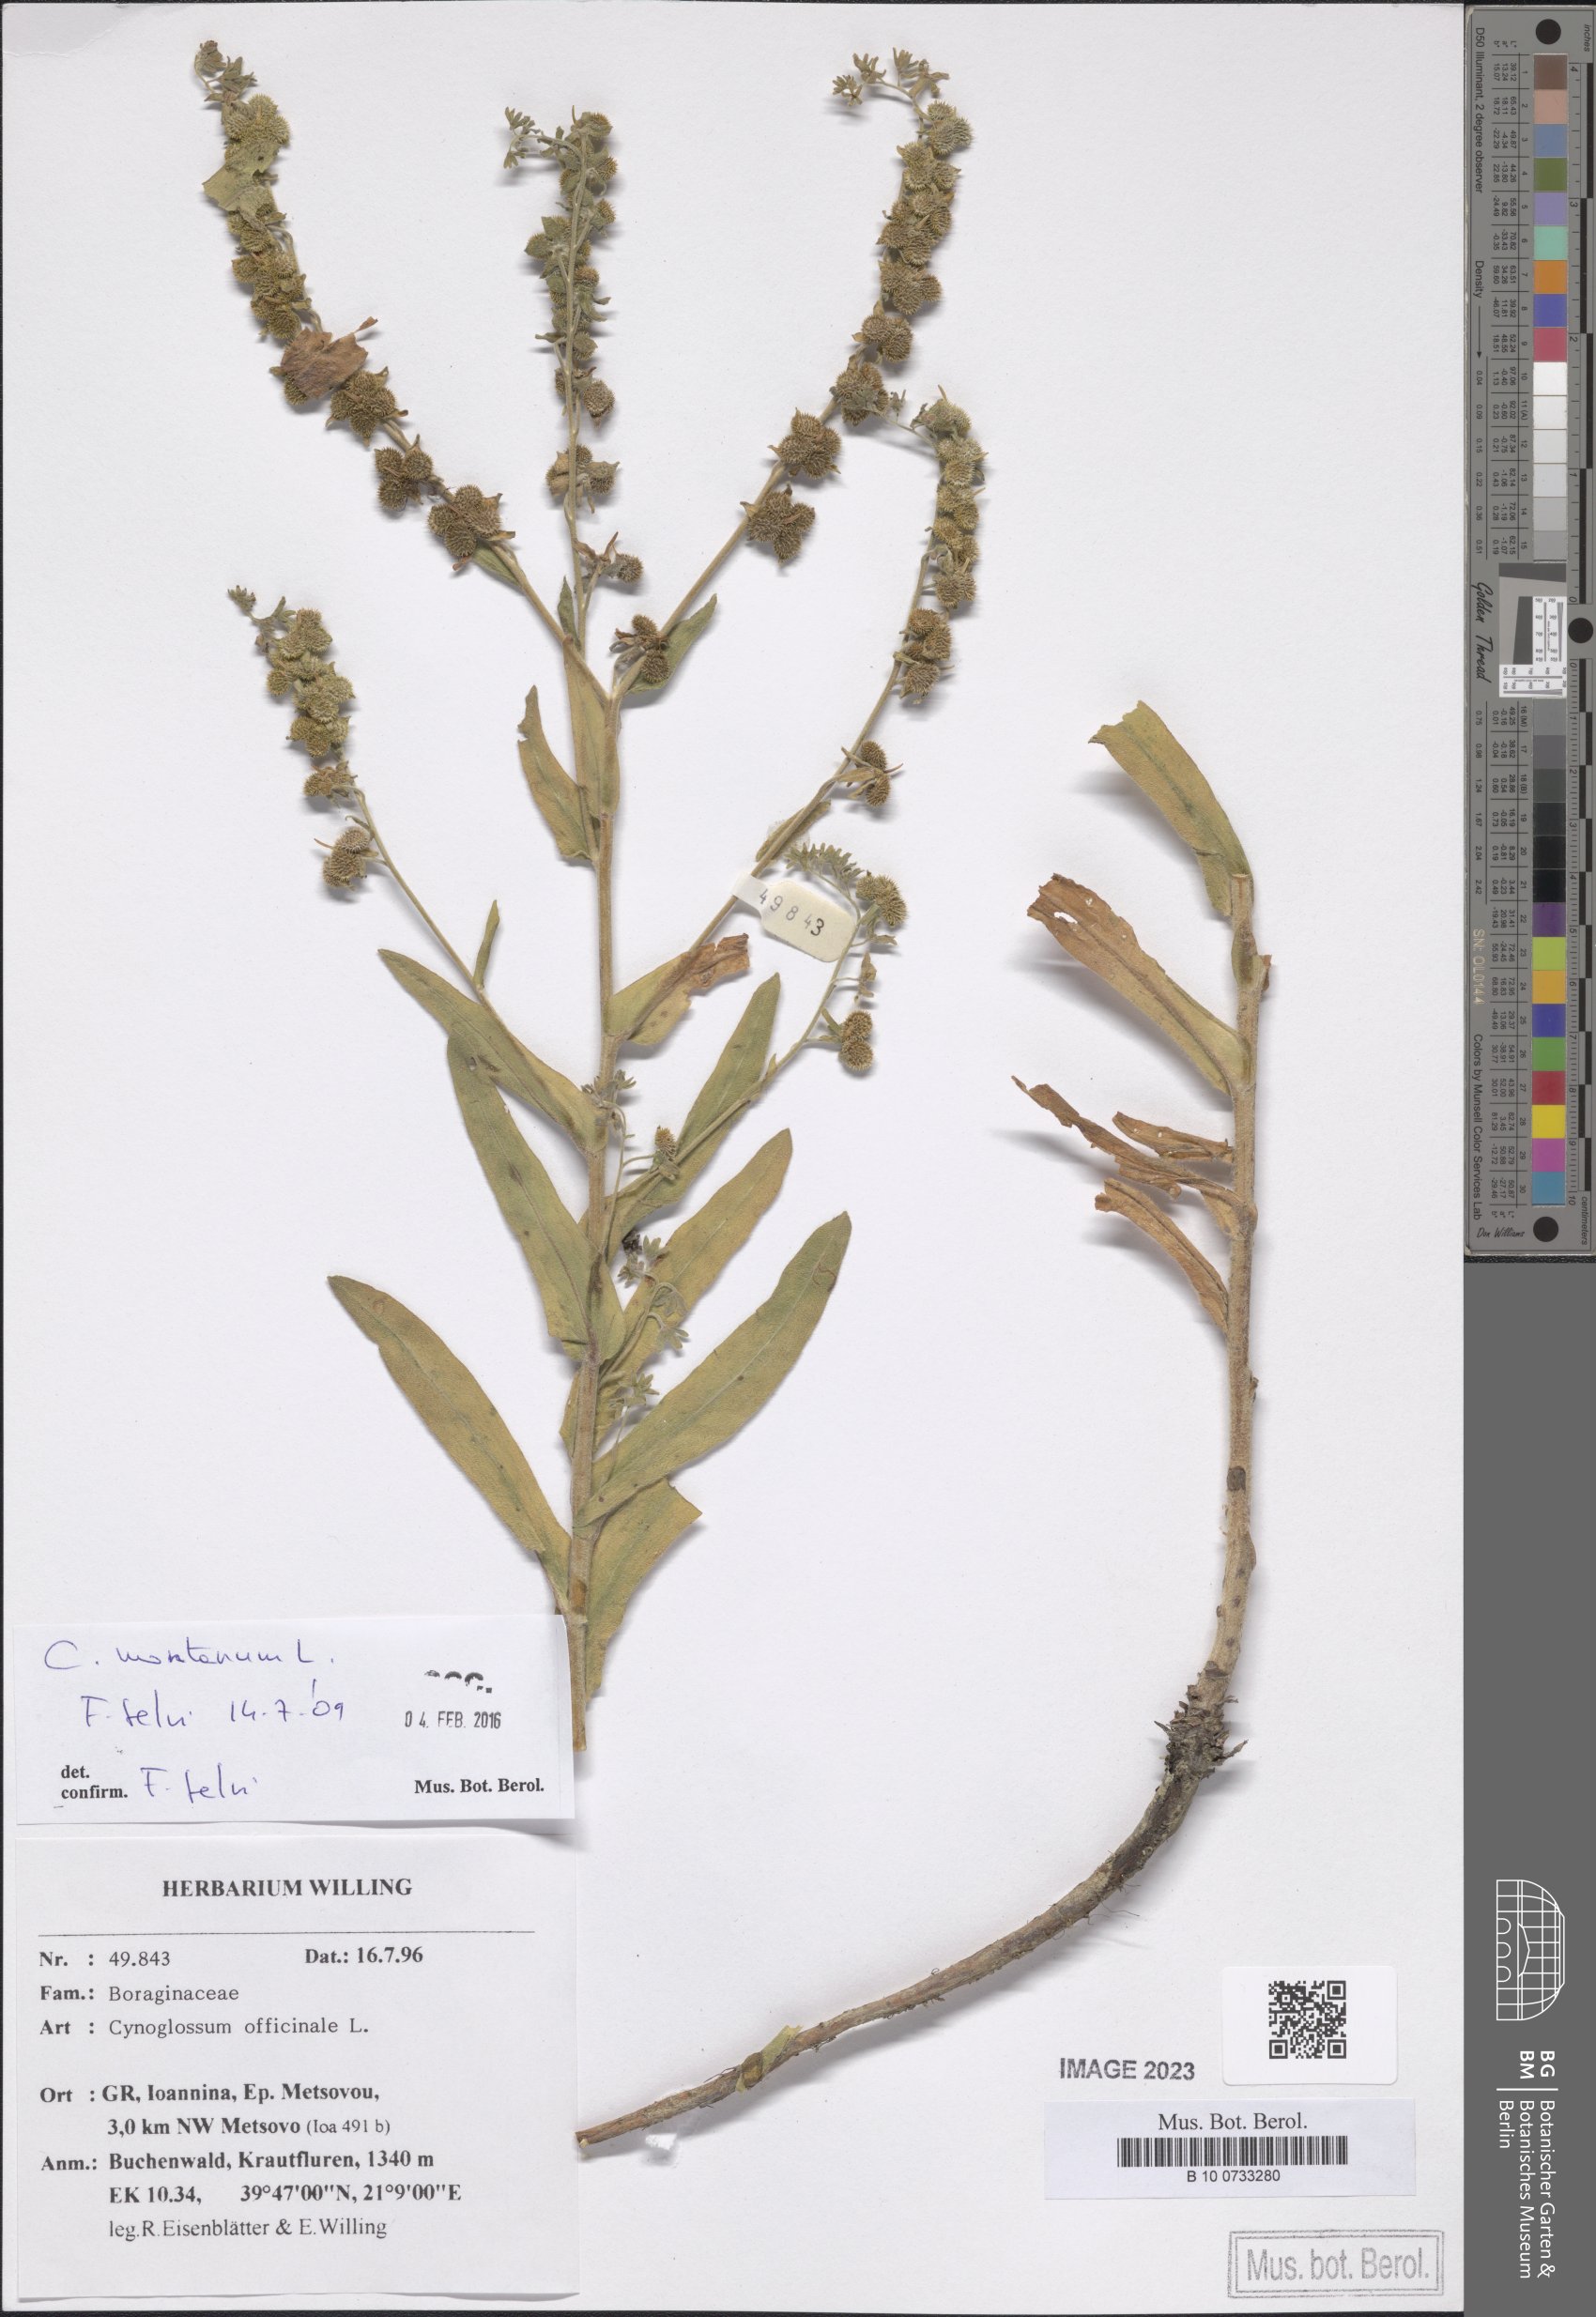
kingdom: Plantae
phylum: Tracheophyta
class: Magnoliopsida
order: Boraginales
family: Boraginaceae
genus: Cynoglossum
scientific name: Cynoglossum montanum
